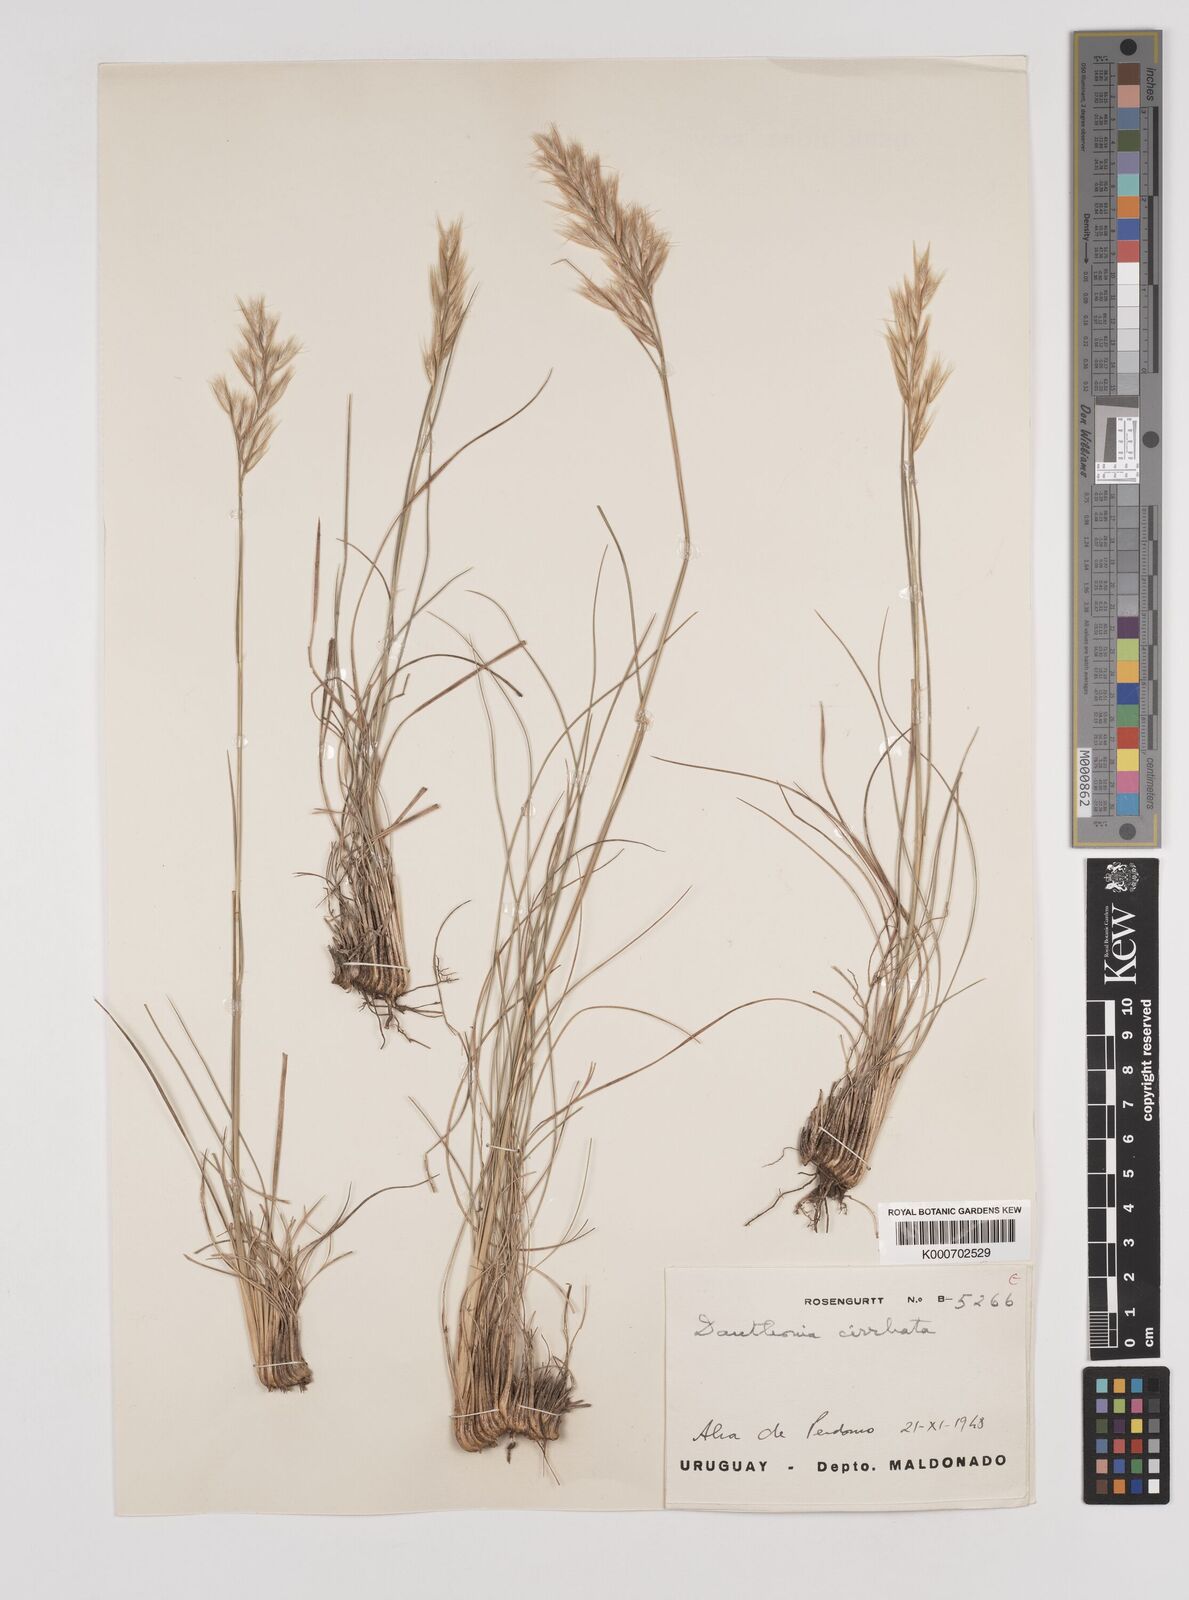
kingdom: Plantae
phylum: Tracheophyta
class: Liliopsida
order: Poales
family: Poaceae
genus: Danthonia
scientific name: Danthonia cirrata
